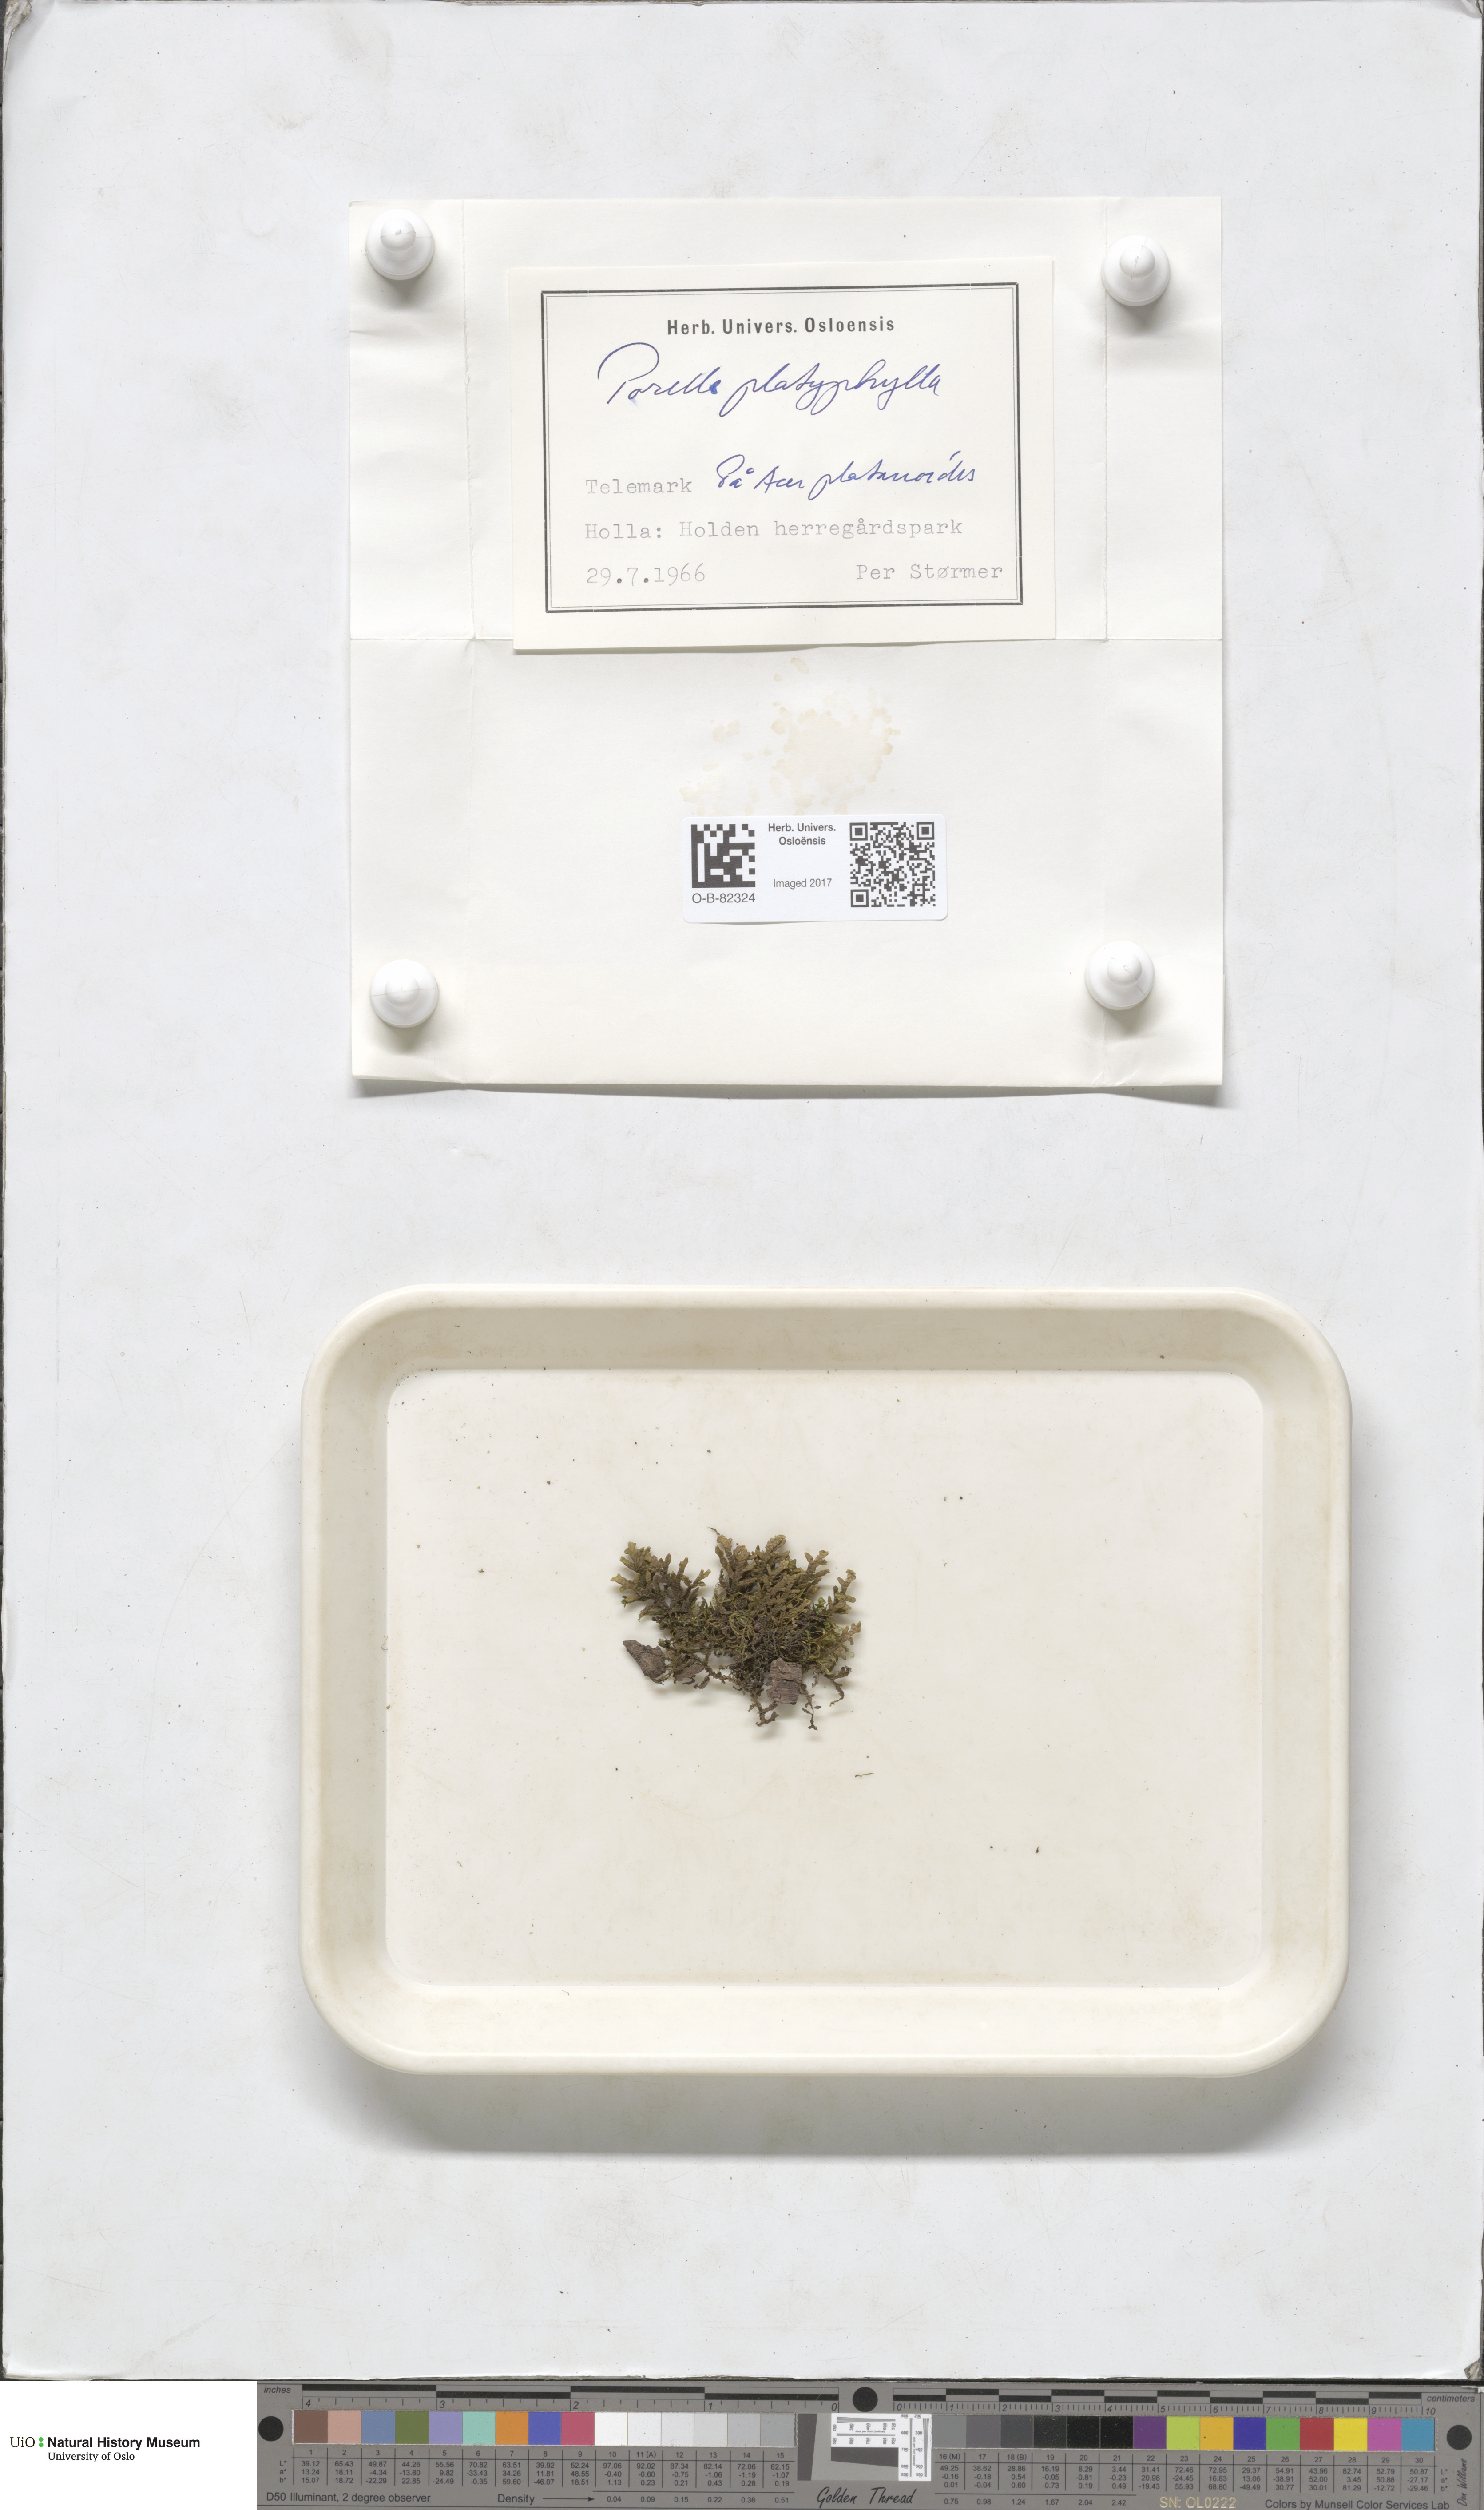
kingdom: Plantae
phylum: Marchantiophyta
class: Jungermanniopsida
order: Porellales
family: Porellaceae
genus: Porella
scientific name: Porella platyphylla
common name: Wall scalewort
